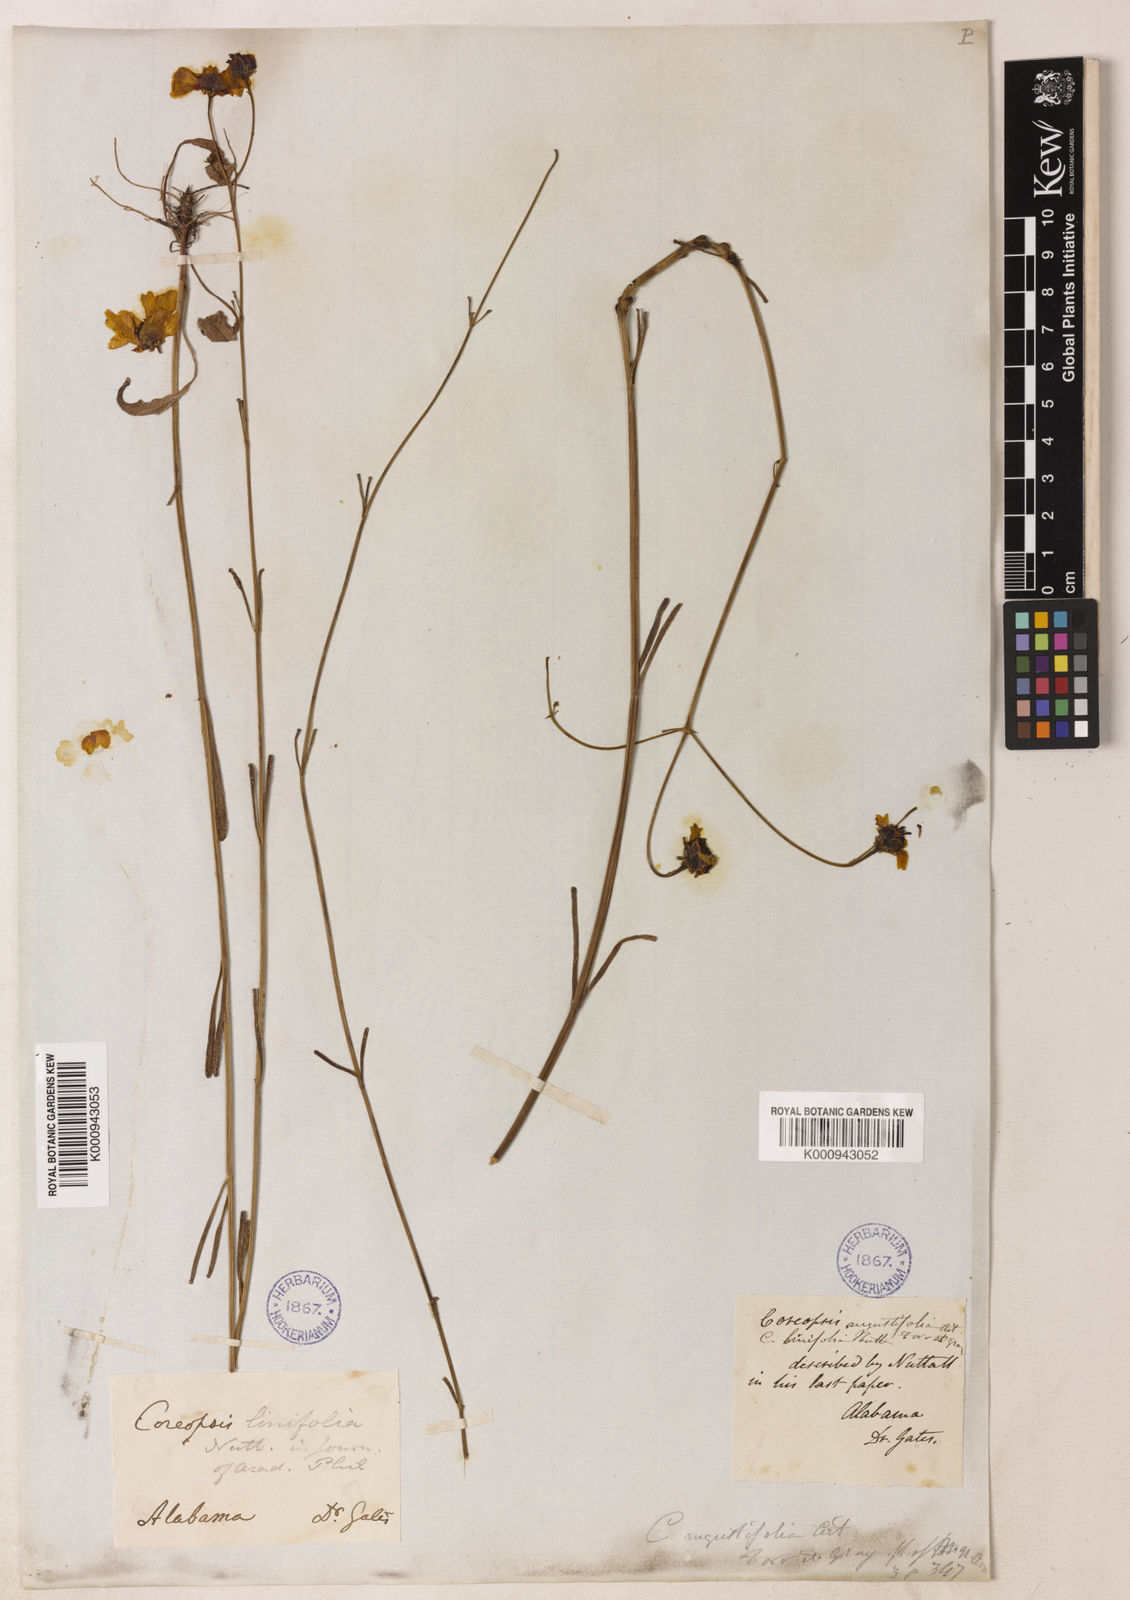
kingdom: Plantae
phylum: Tracheophyta
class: Magnoliopsida
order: Asterales
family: Asteraceae
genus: Coreopsis
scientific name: Coreopsis gladiata
